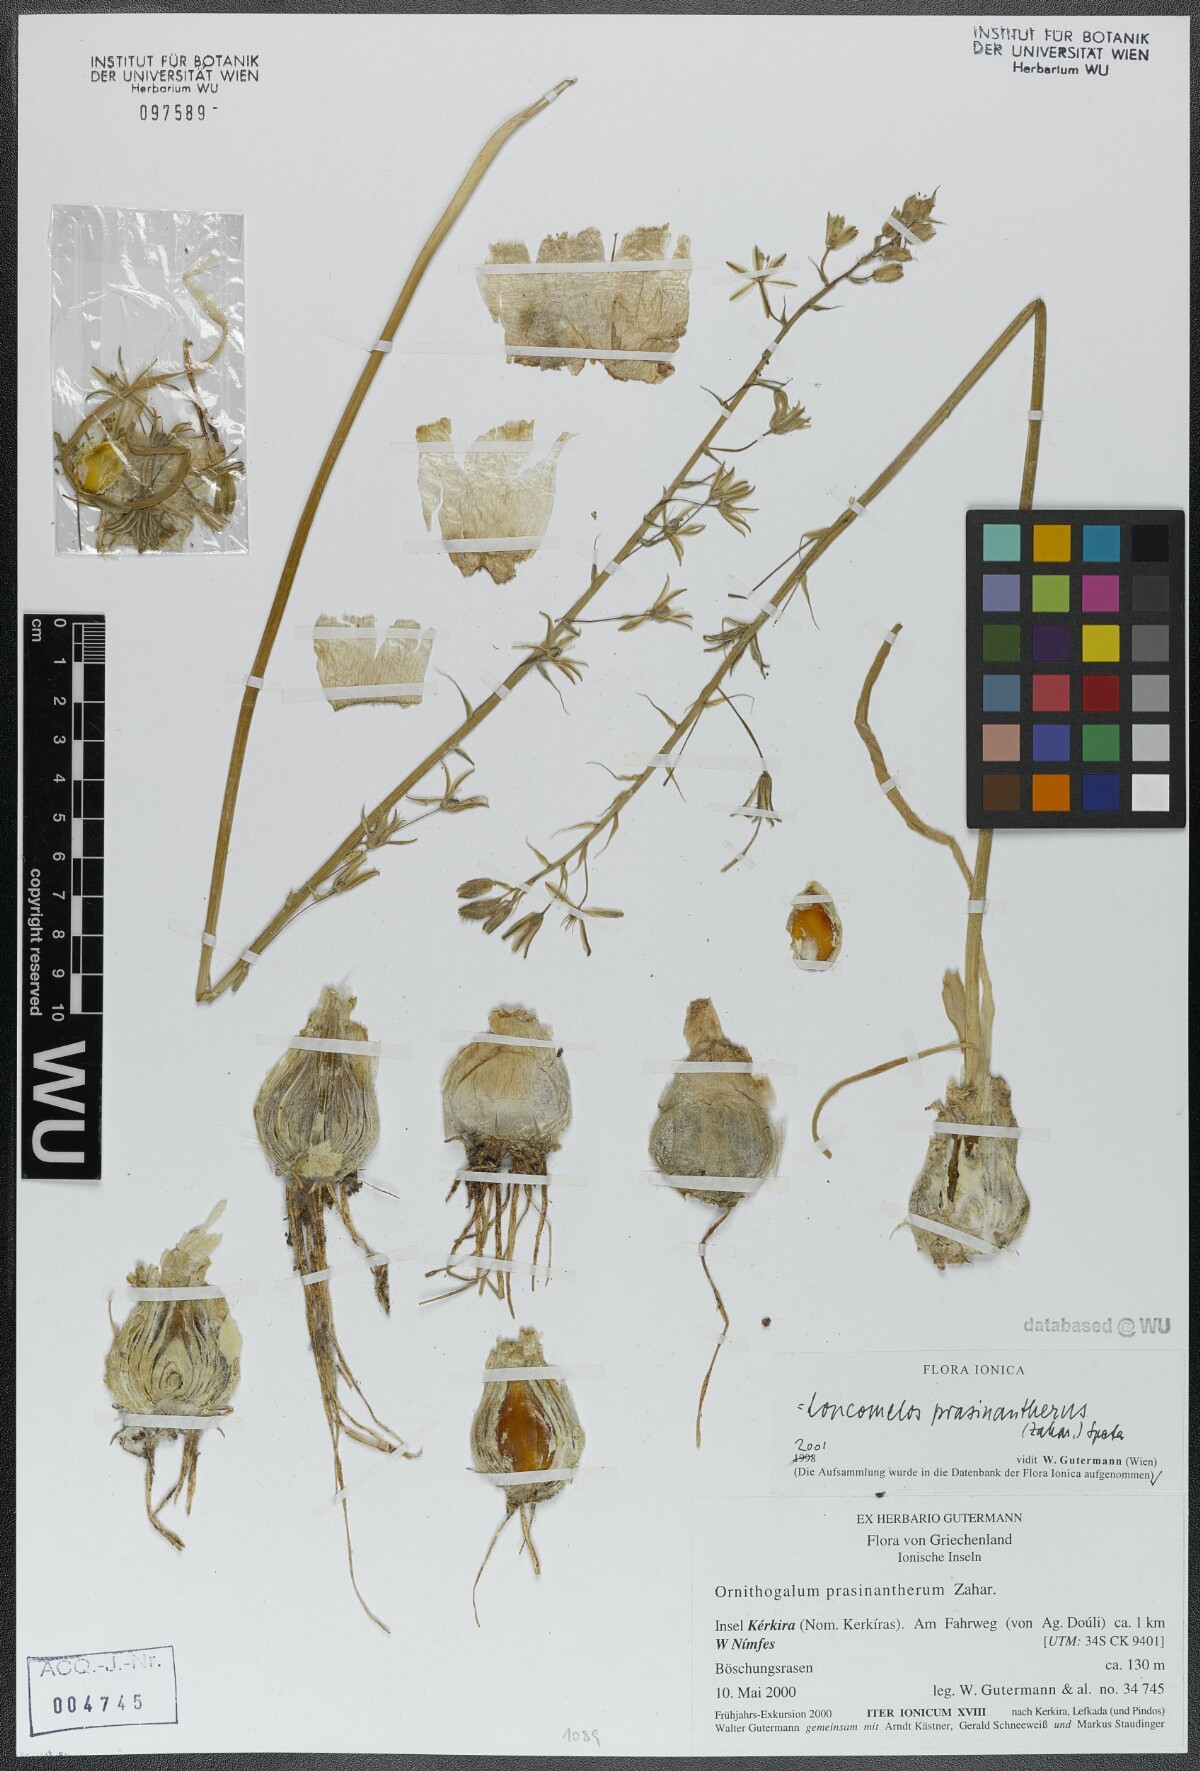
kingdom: Plantae
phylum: Tracheophyta
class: Liliopsida
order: Asparagales
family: Asparagaceae
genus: Ornithogalum
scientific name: Ornithogalum prasinantherum
